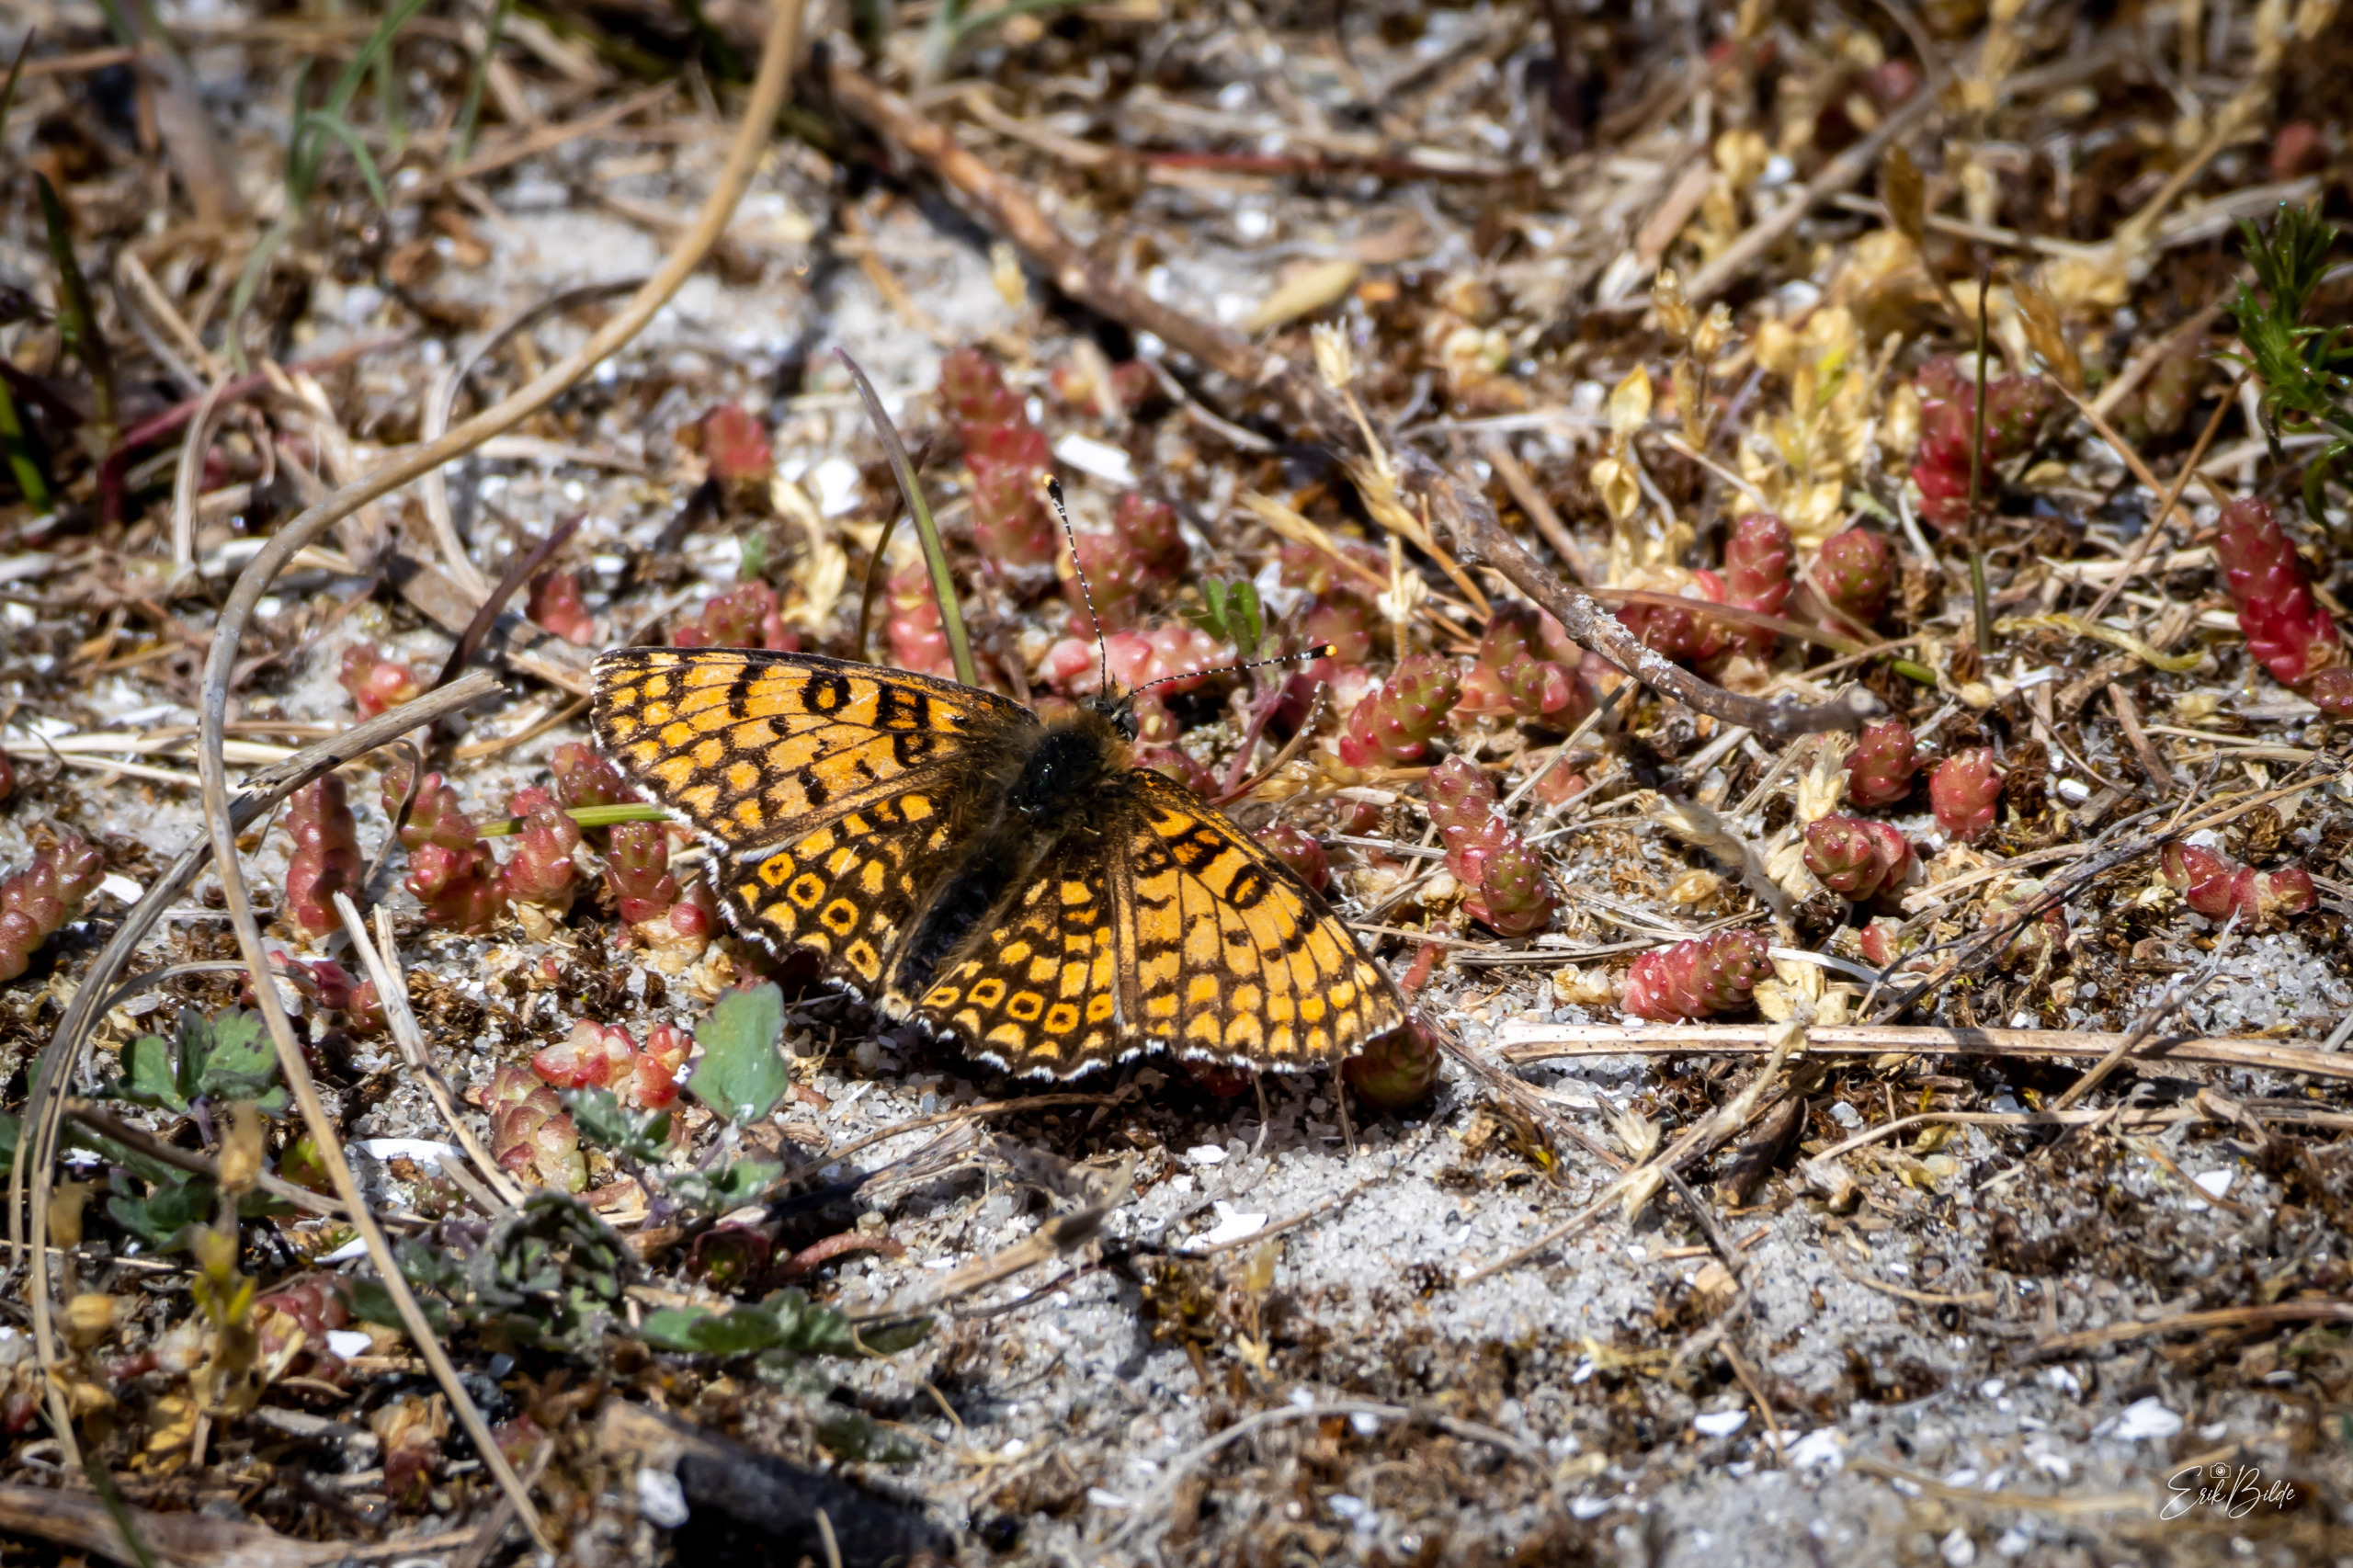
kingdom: Animalia
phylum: Arthropoda
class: Insecta
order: Lepidoptera
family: Nymphalidae
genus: Melitaea
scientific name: Melitaea cinxia
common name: Okkergul pletvinge
